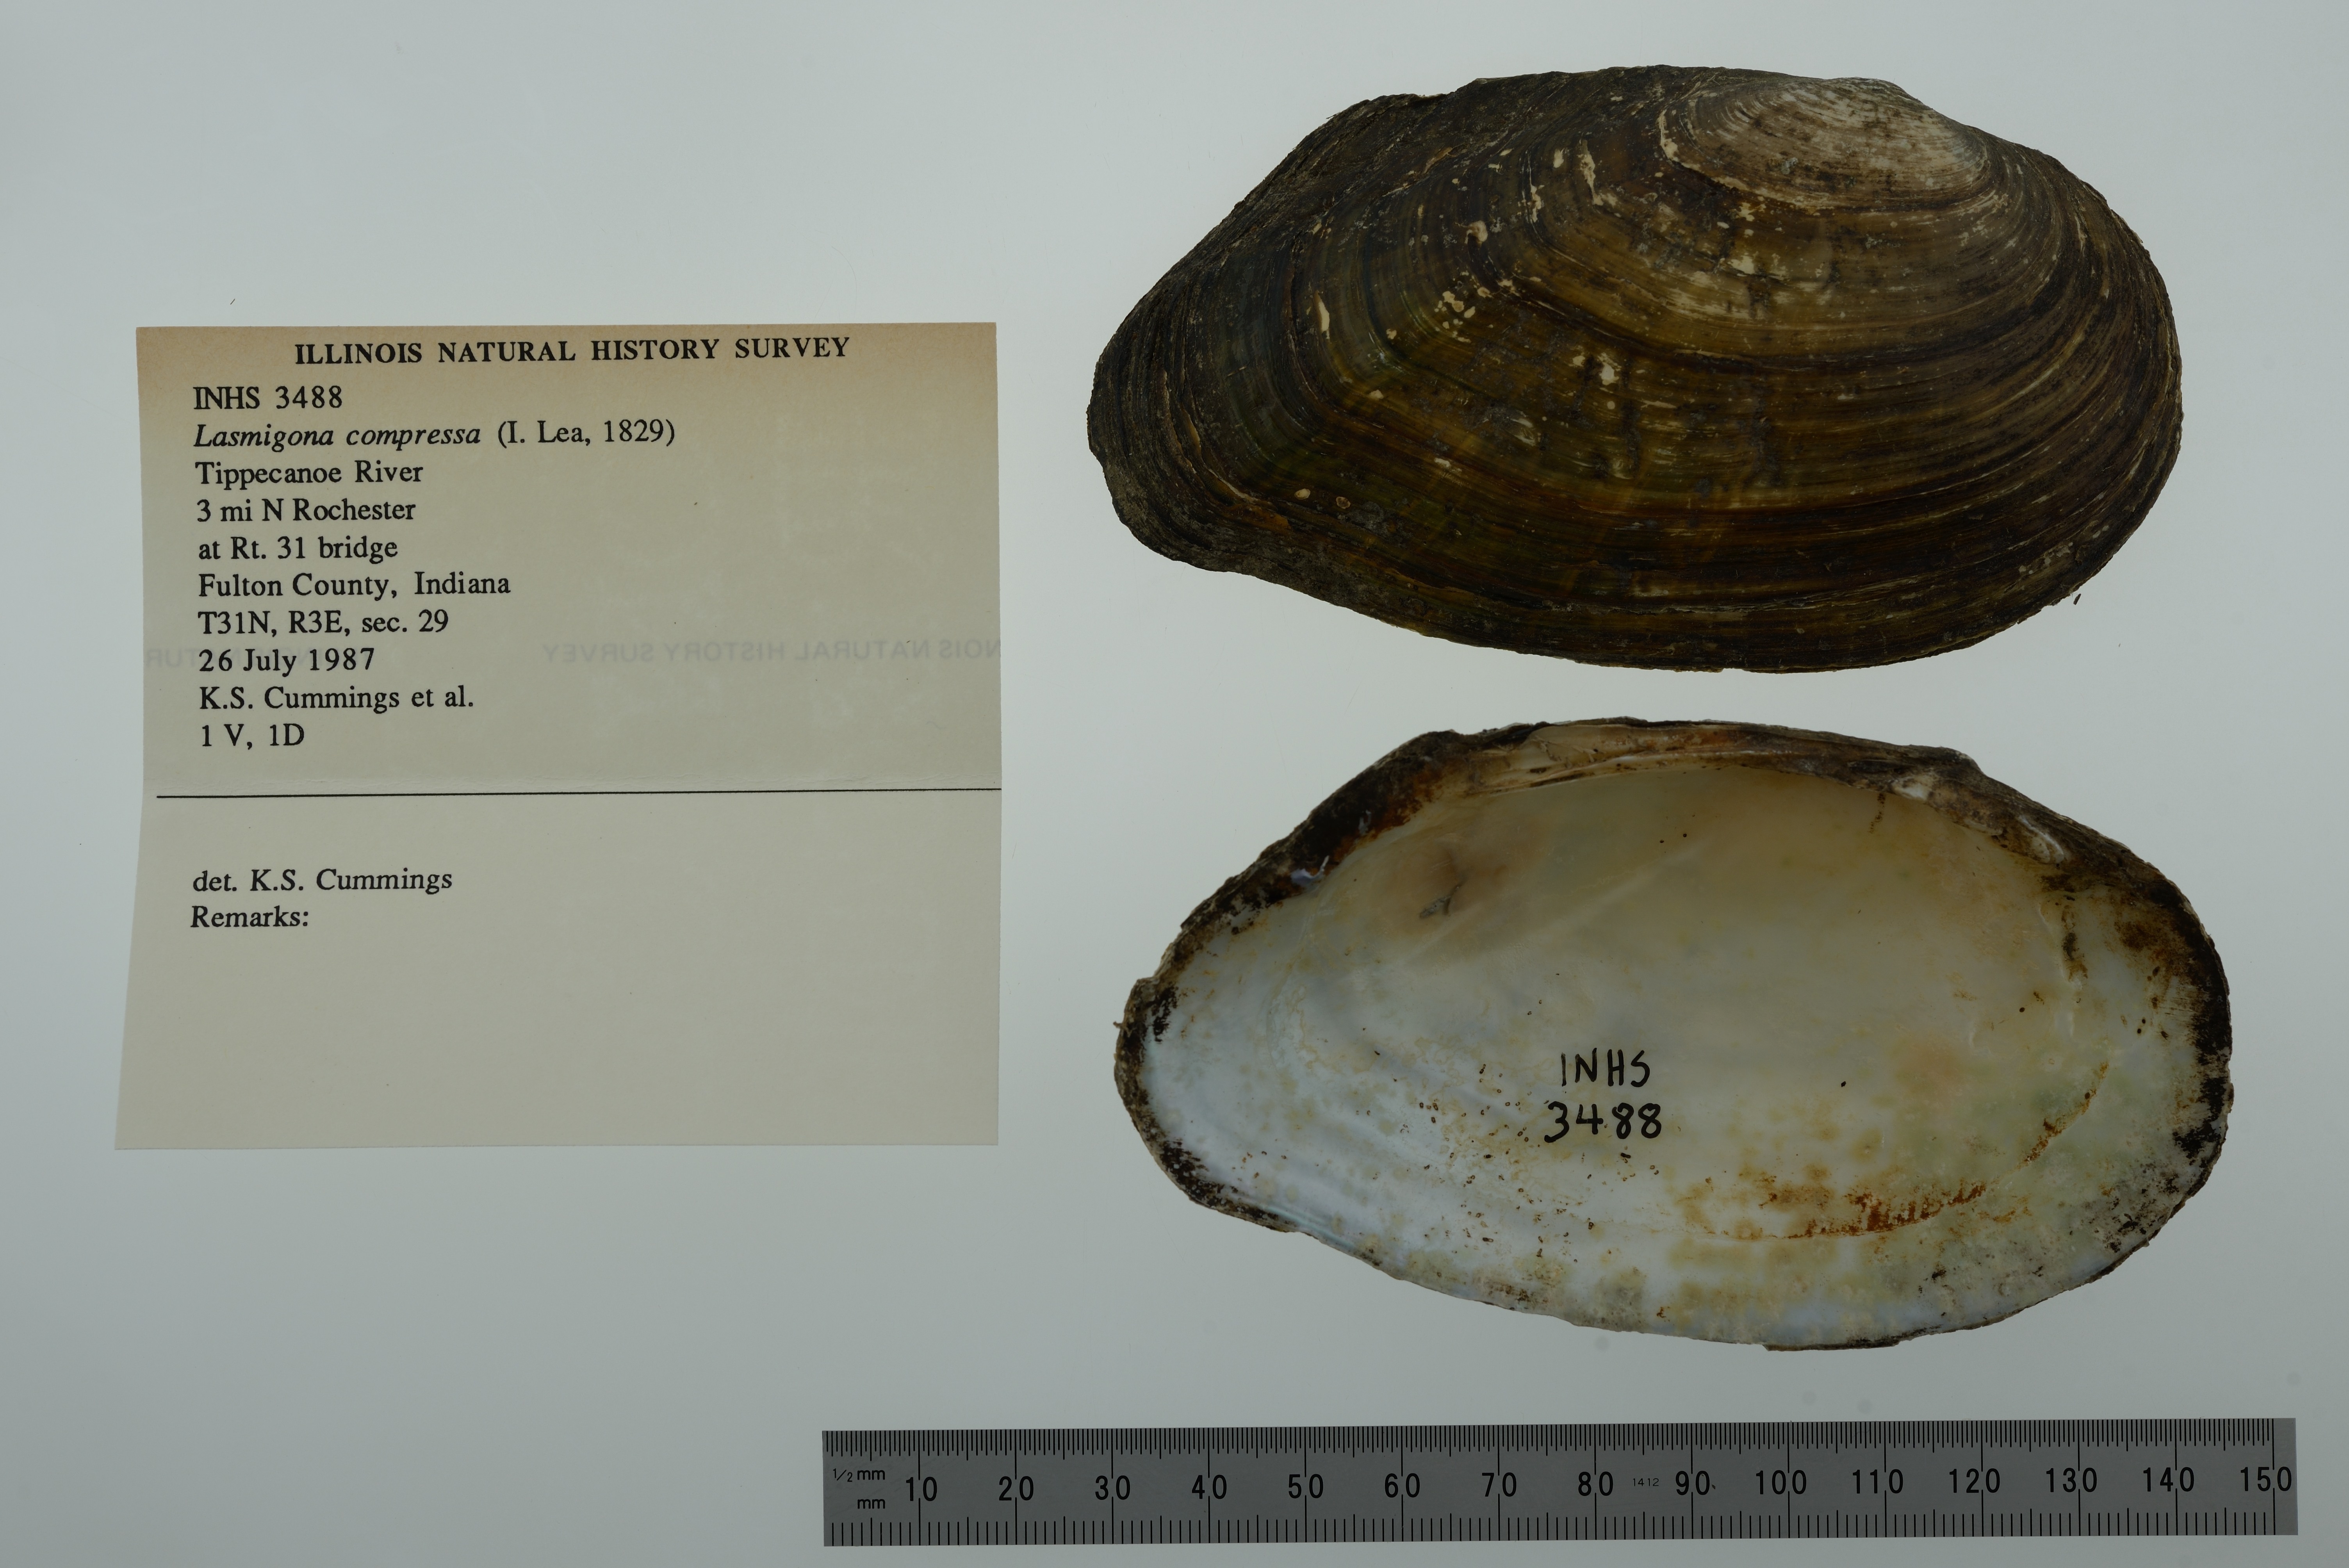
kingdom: Animalia
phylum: Mollusca
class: Bivalvia
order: Unionida
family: Unionidae
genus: Lasmigona
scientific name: Lasmigona compressa
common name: Creek heelsplitter
